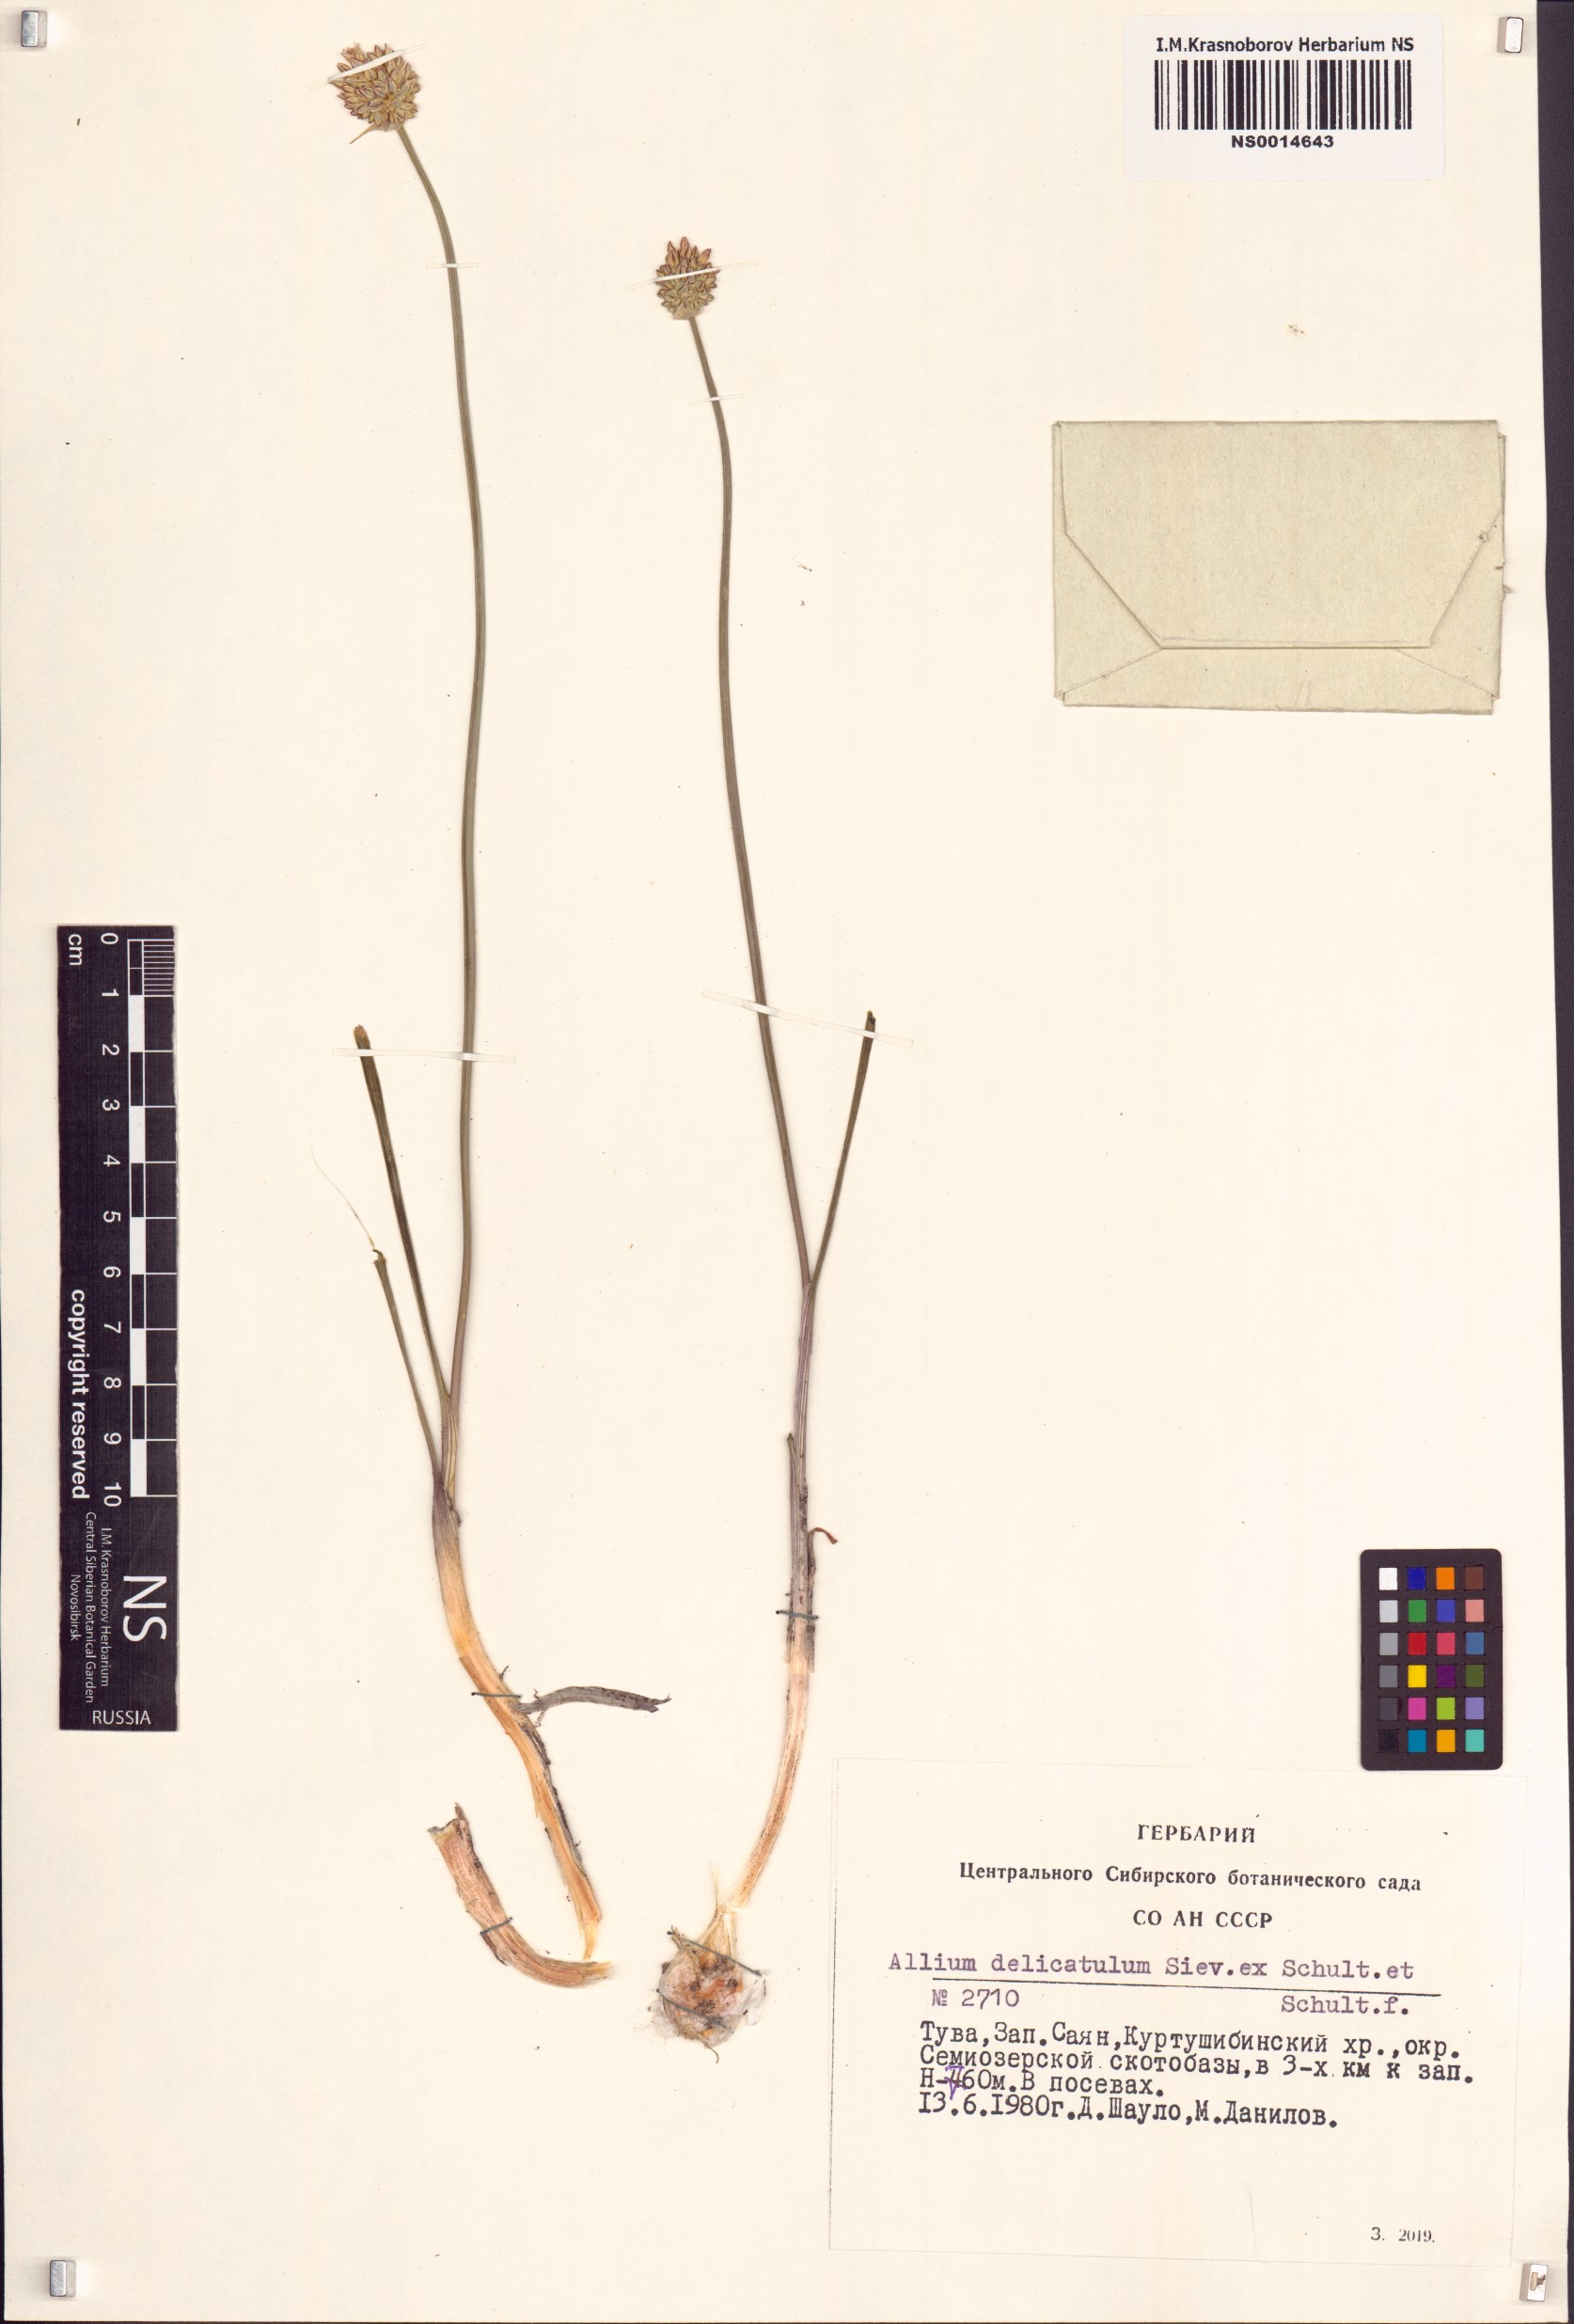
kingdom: Plantae
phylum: Tracheophyta
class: Liliopsida
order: Asparagales
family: Amaryllidaceae
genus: Allium
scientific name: Allium delicatulum
